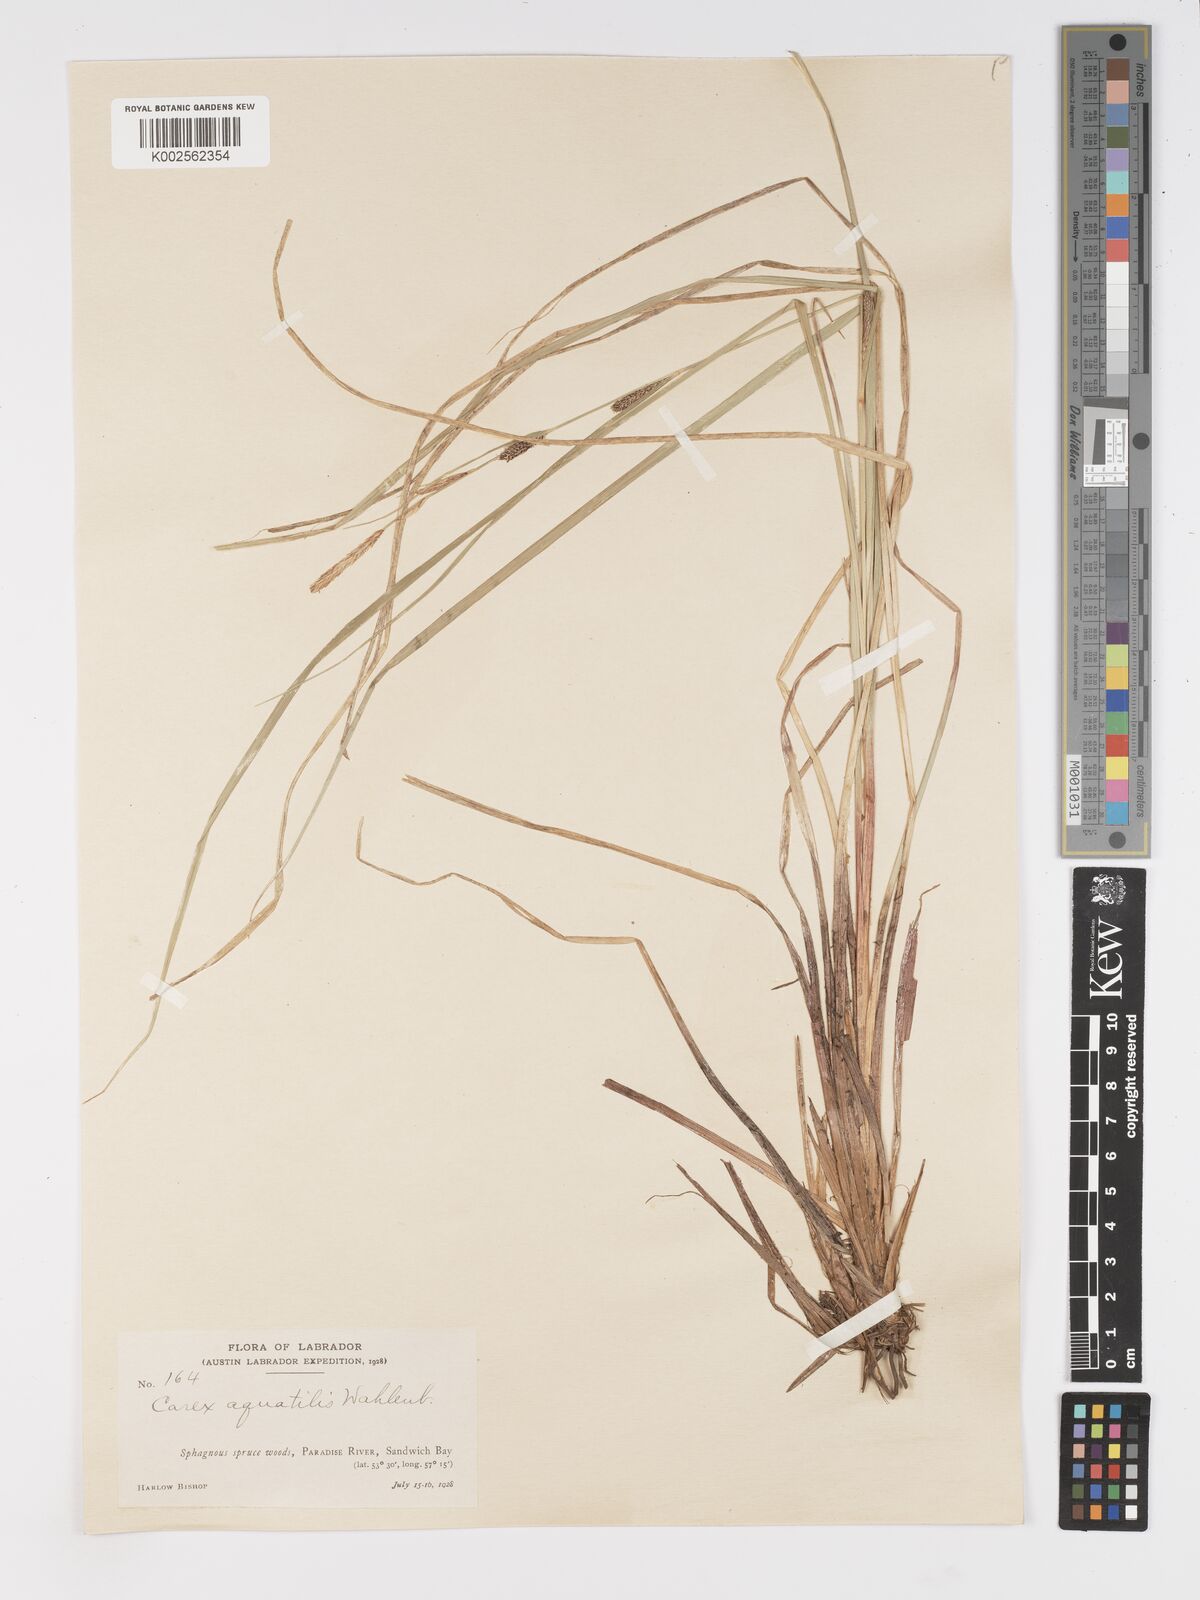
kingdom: Plantae
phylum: Tracheophyta
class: Liliopsida
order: Poales
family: Cyperaceae
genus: Carex
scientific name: Carex aquatilis
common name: Water sedge
